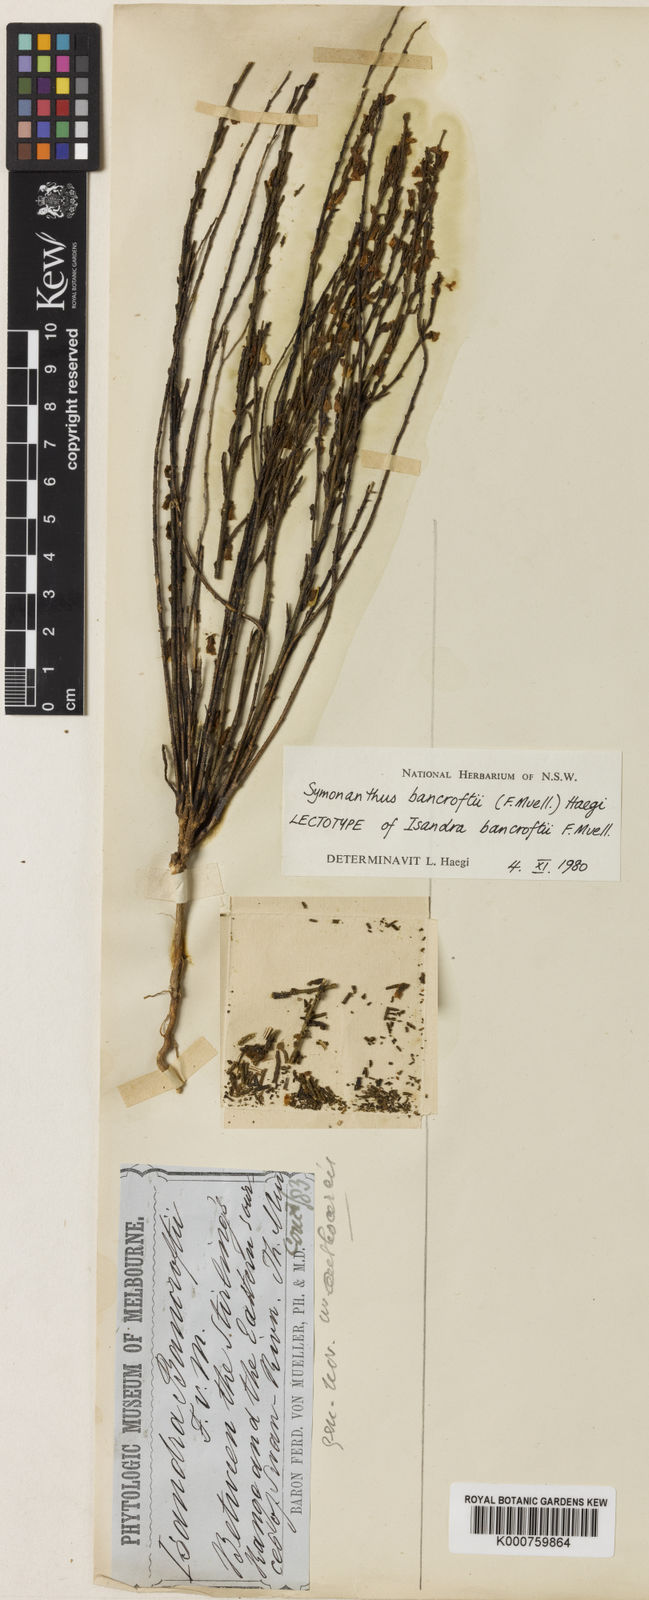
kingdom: Plantae
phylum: Tracheophyta
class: Magnoliopsida
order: Solanales
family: Solanaceae
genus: Symonanthus
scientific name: Symonanthus bancroftii
